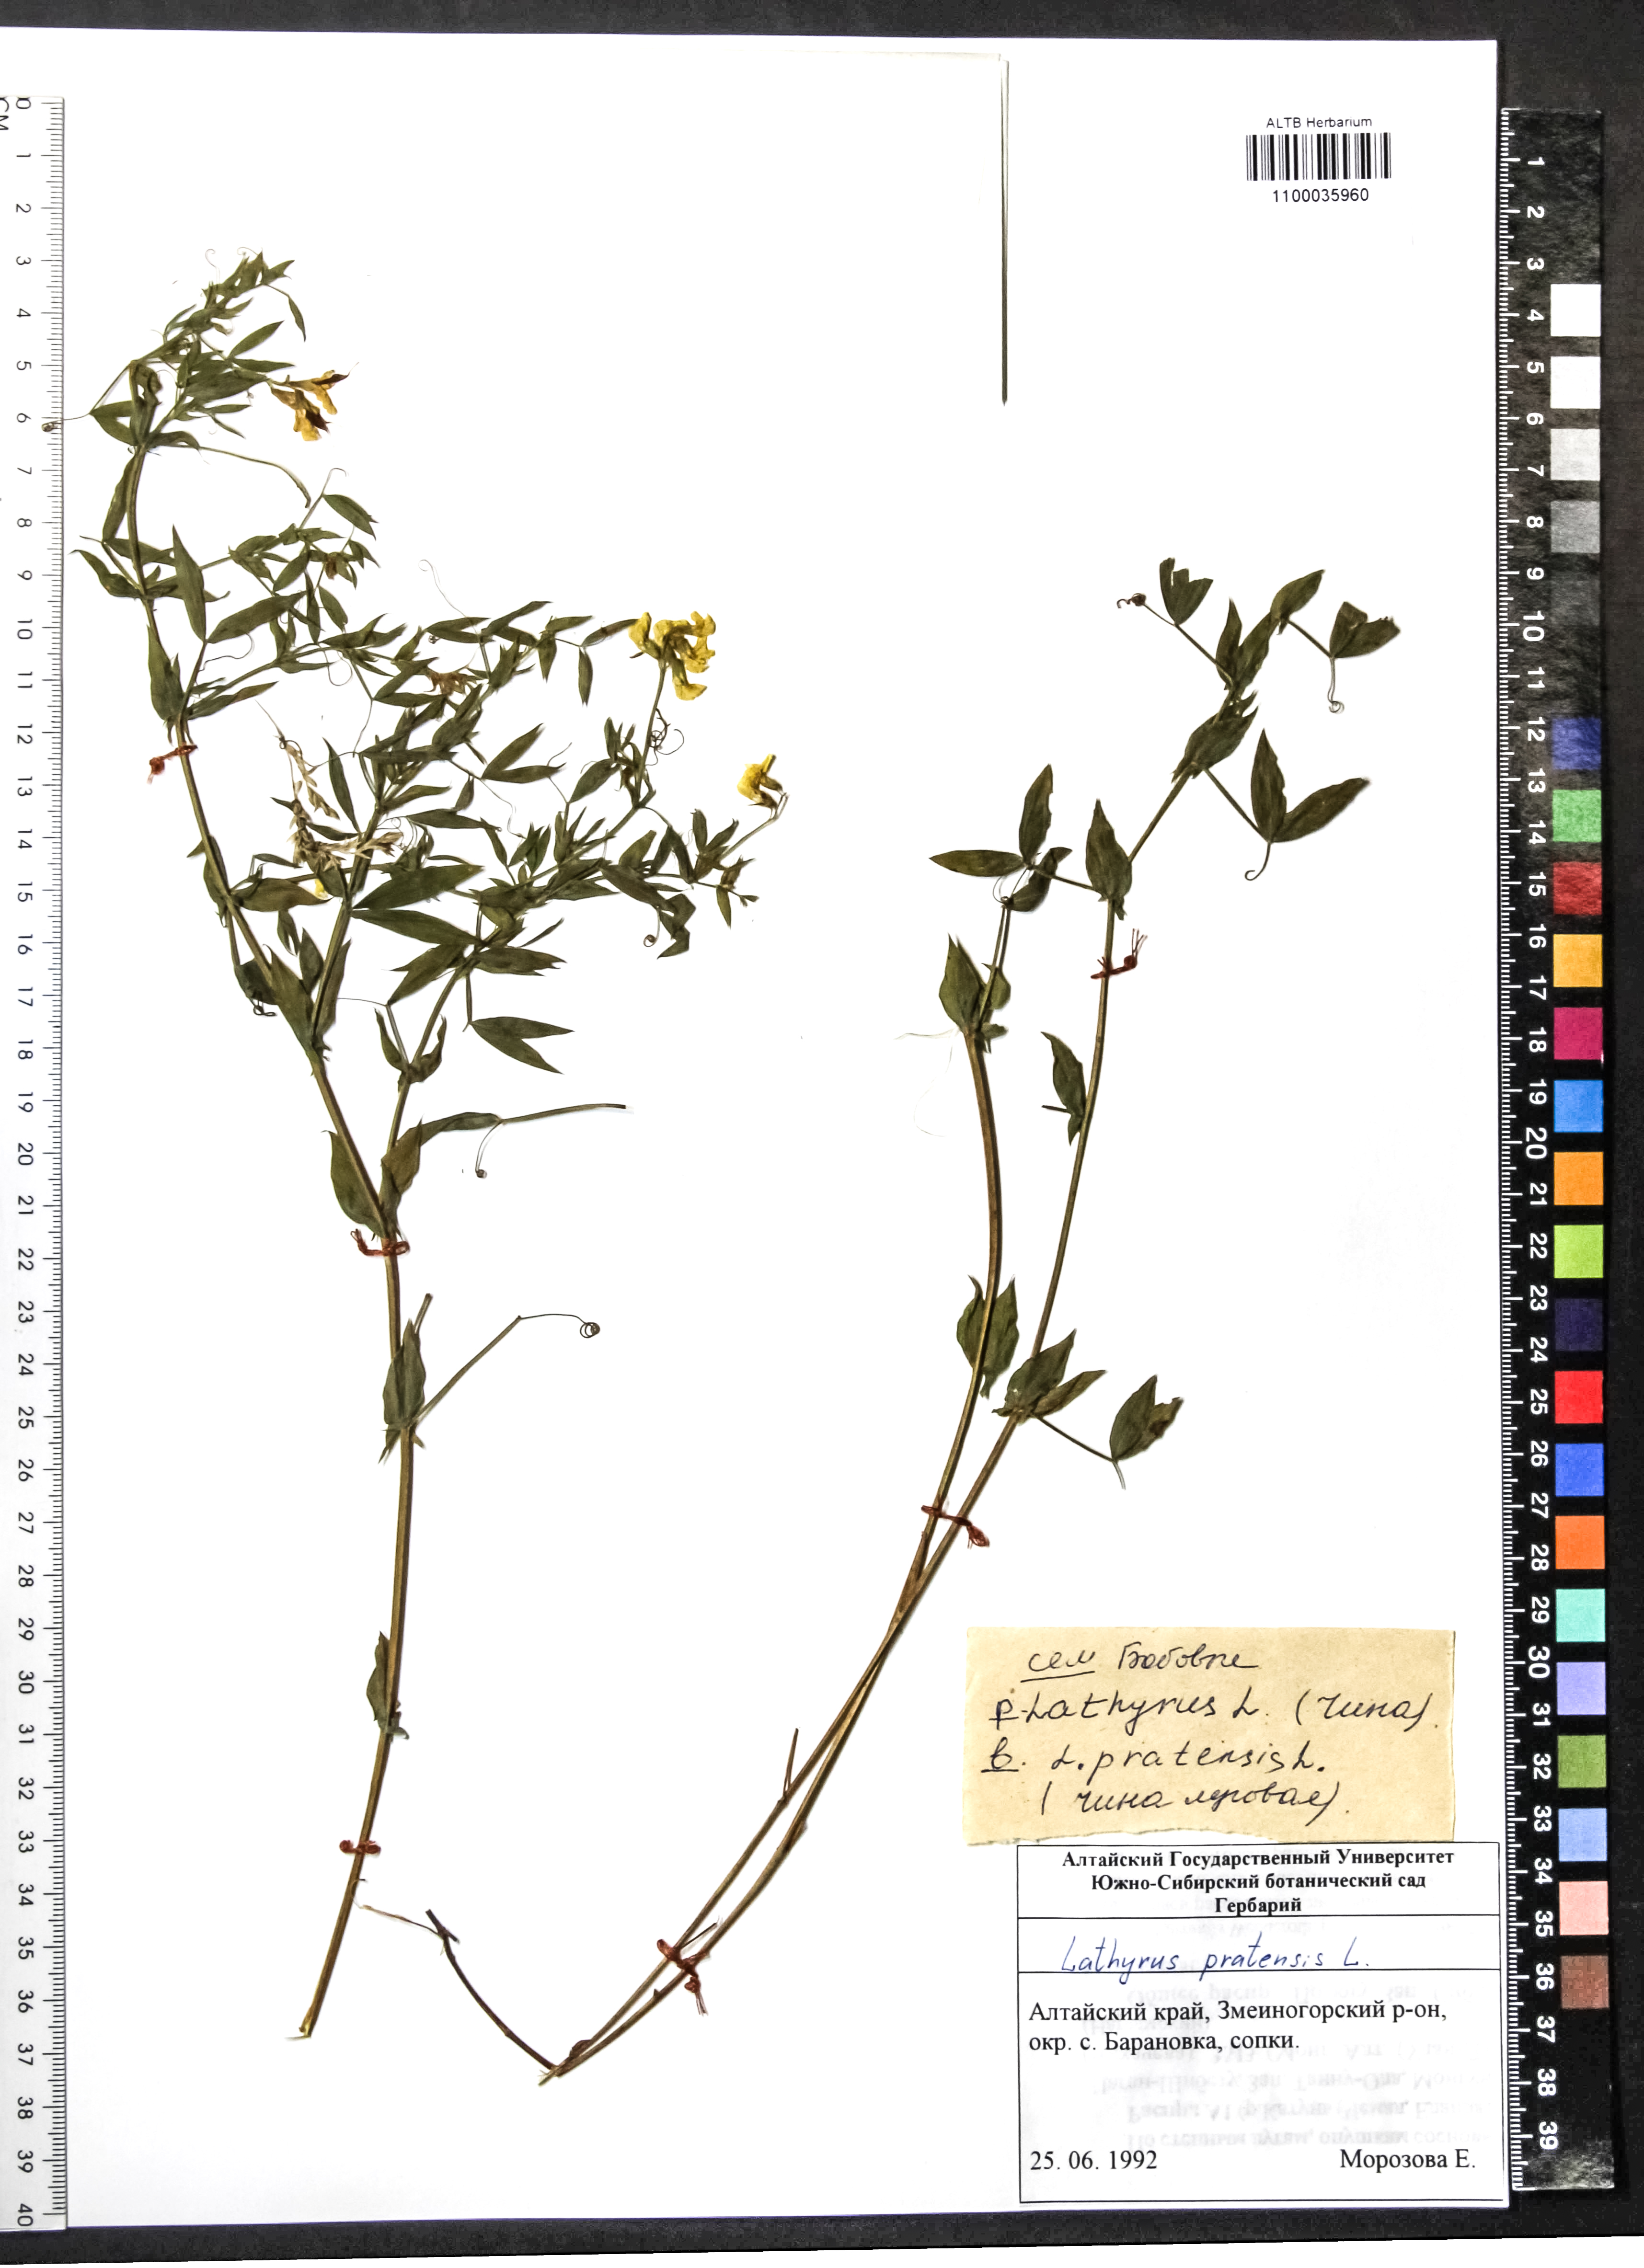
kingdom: Plantae
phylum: Tracheophyta
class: Magnoliopsida
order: Fabales
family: Fabaceae
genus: Lathyrus
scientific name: Lathyrus pratensis
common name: Meadow vetchling
